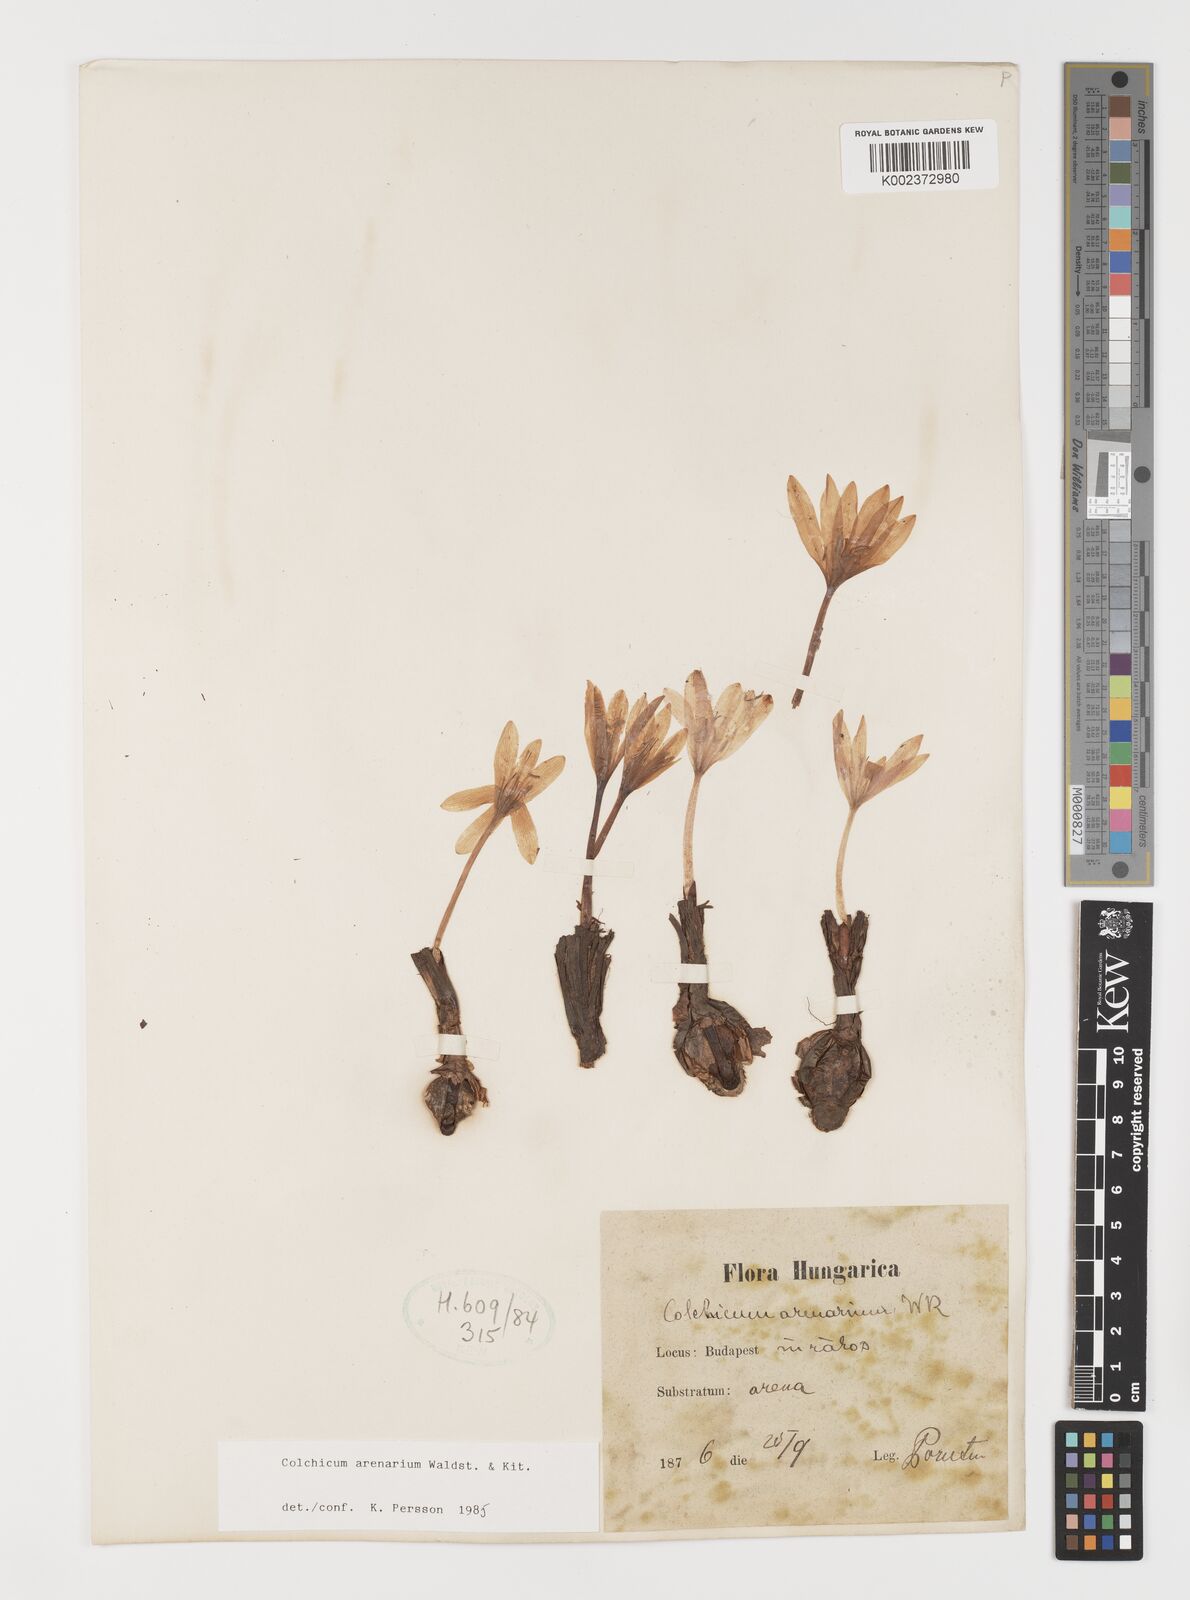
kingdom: Plantae
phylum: Tracheophyta
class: Liliopsida
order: Liliales
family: Colchicaceae
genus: Colchicum
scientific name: Colchicum arenarium
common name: Sand saffron
